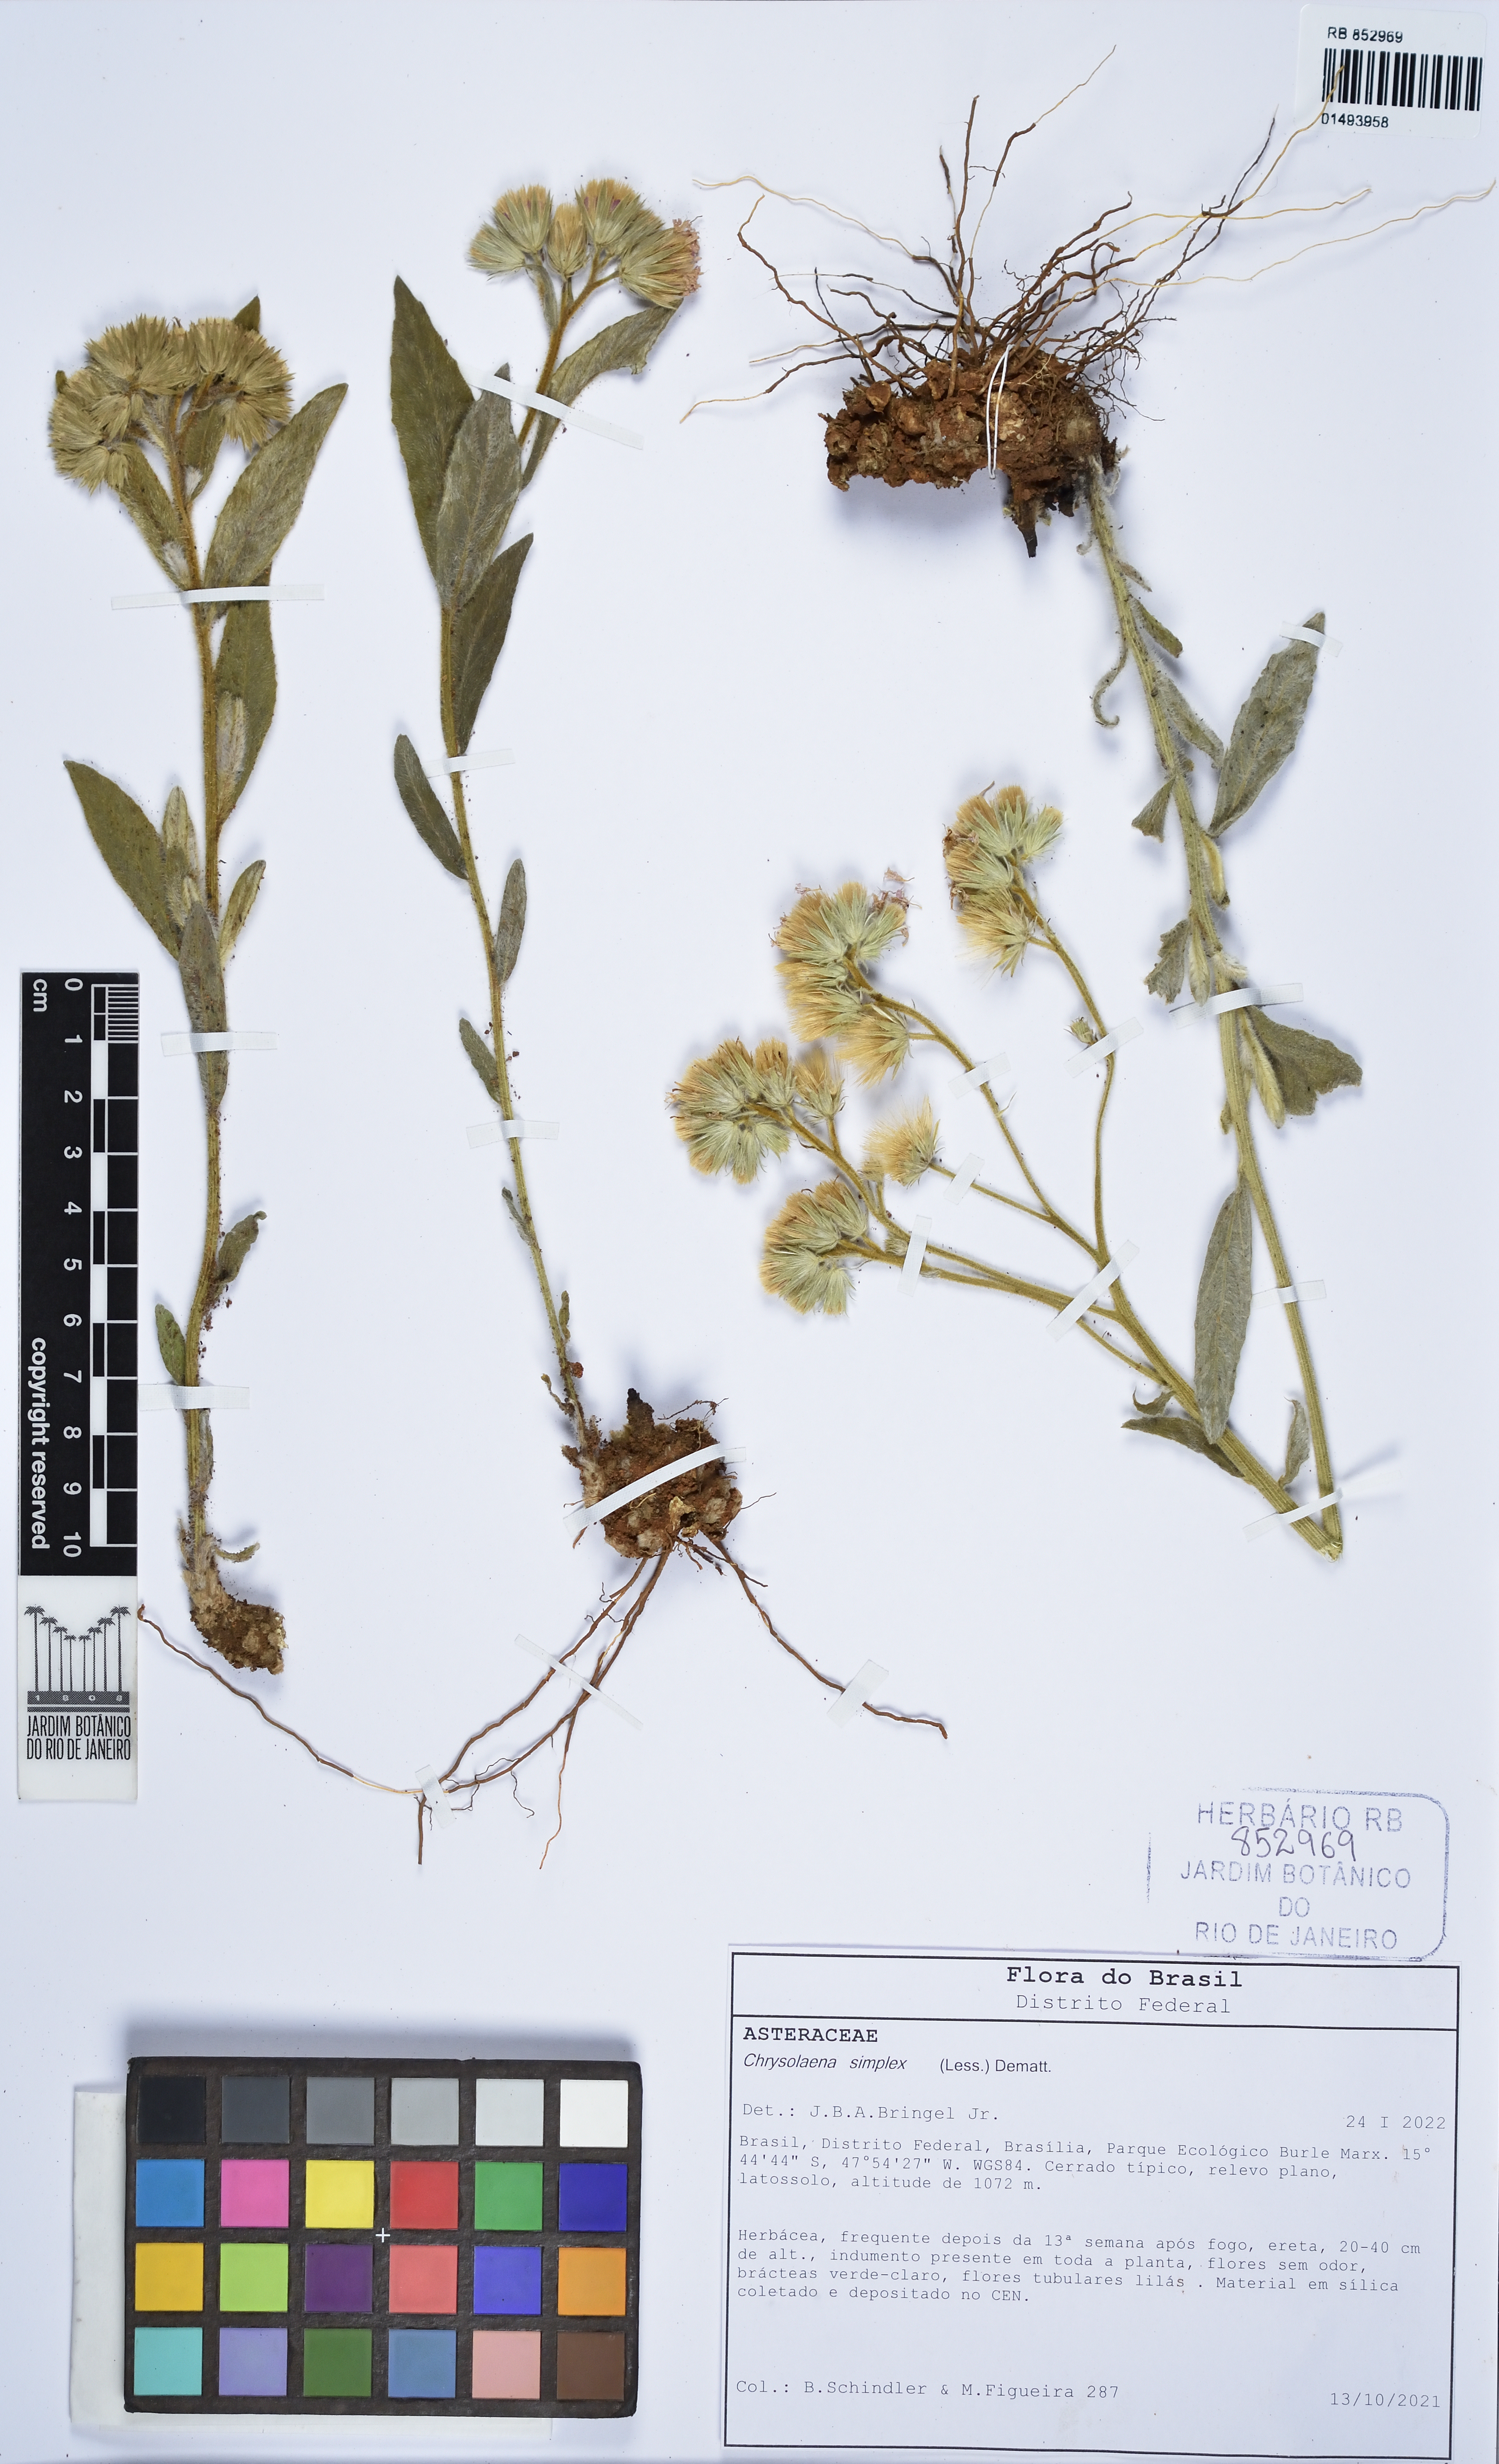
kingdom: Plantae
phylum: Tracheophyta
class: Magnoliopsida
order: Asterales
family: Asteraceae
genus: Chrysolaena
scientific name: Chrysolaena simplex
